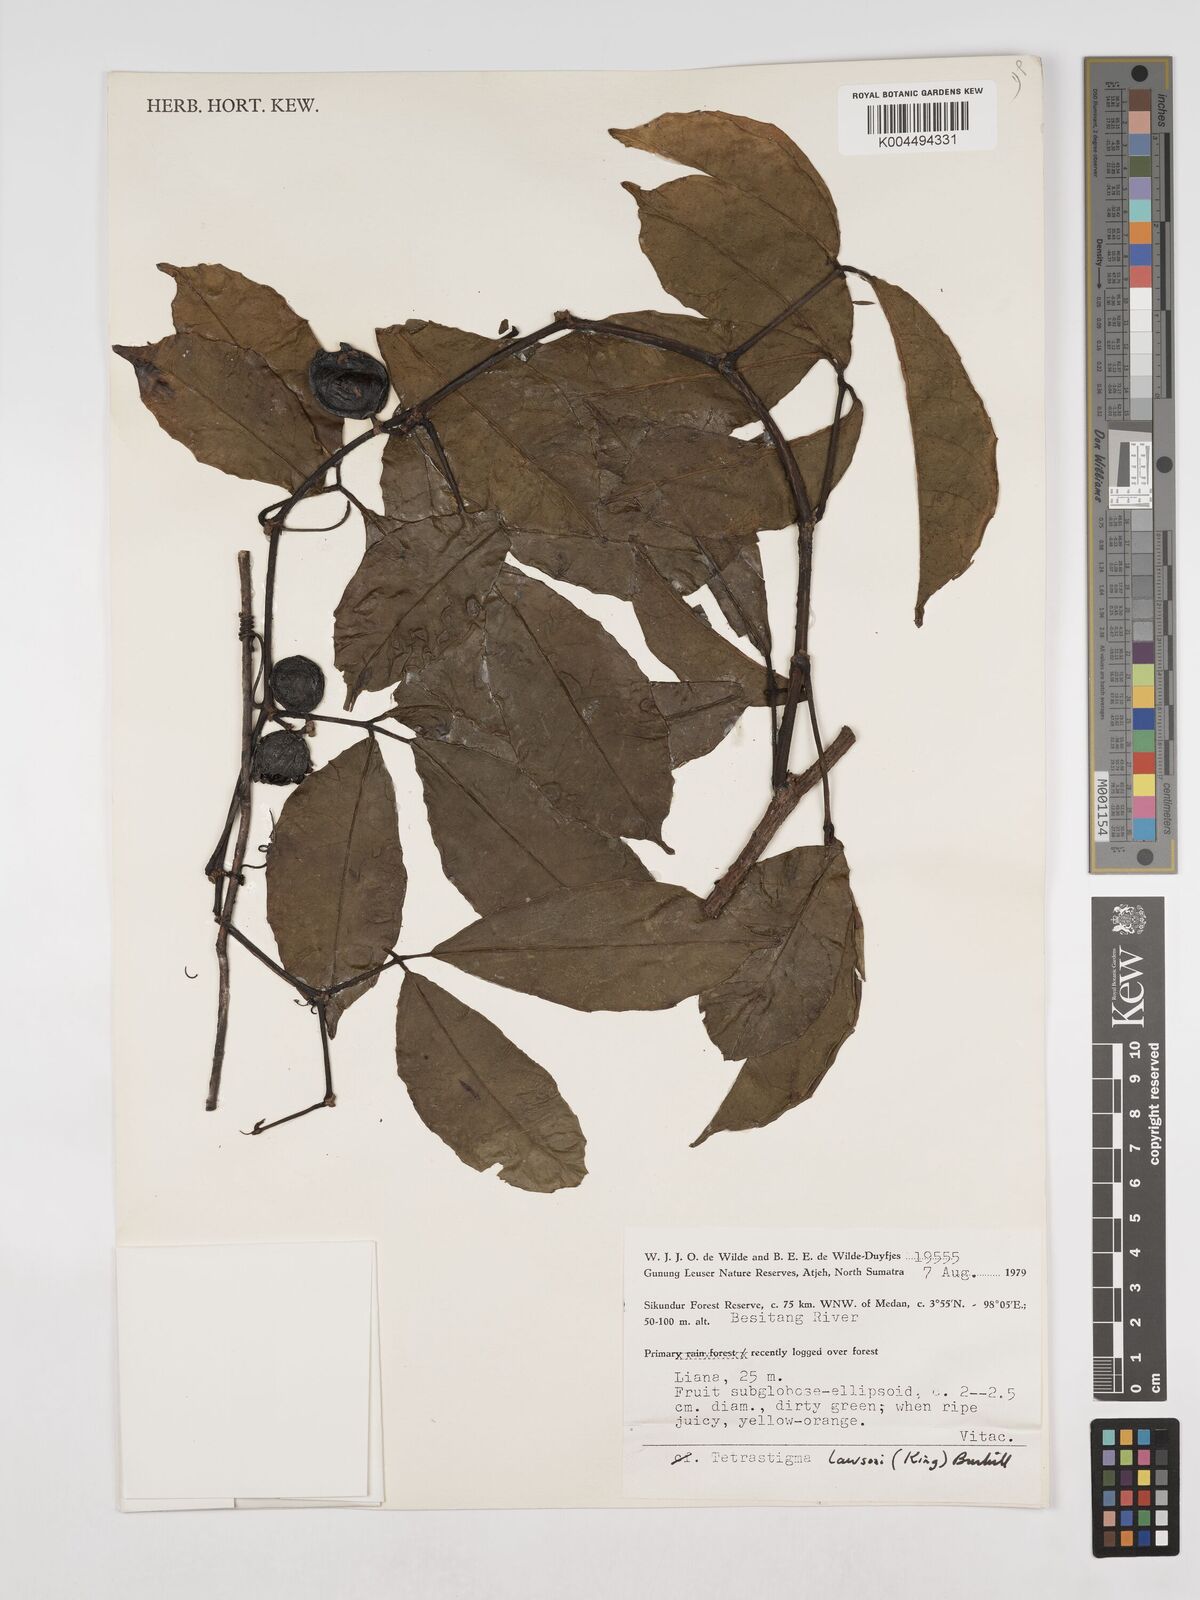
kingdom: Plantae
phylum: Tracheophyta
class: Magnoliopsida
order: Vitales
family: Vitaceae
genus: Tetrastigma
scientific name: Tetrastigma
